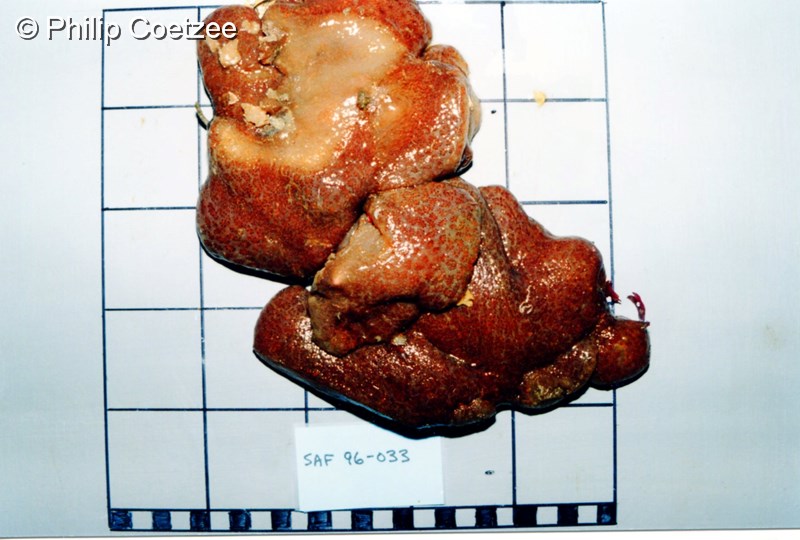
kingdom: Animalia
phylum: Chordata
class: Ascidiacea
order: Aplousobranchia
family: Polyclinidae
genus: Aplidium
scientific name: Aplidium
